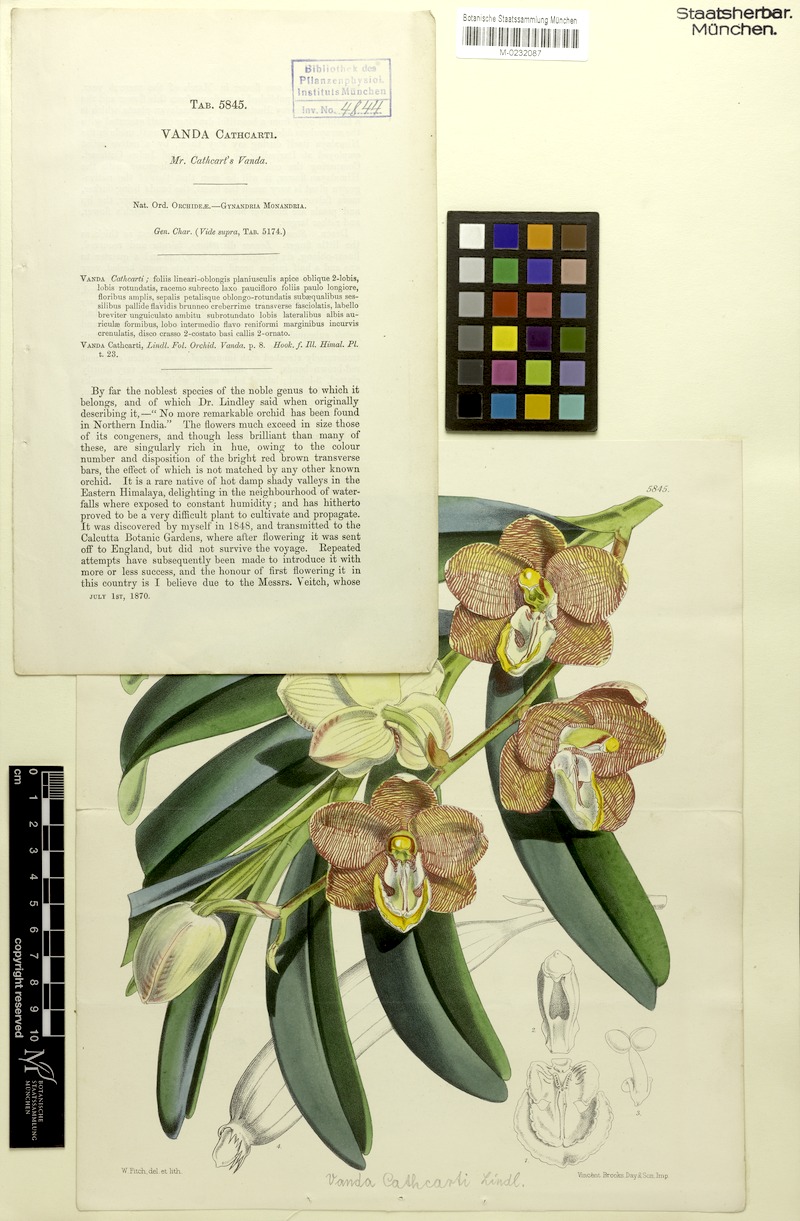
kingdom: Plantae
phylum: Tracheophyta
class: Liliopsida
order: Asparagales
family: Orchidaceae
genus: Arachnis
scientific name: Arachnis cathcartii
